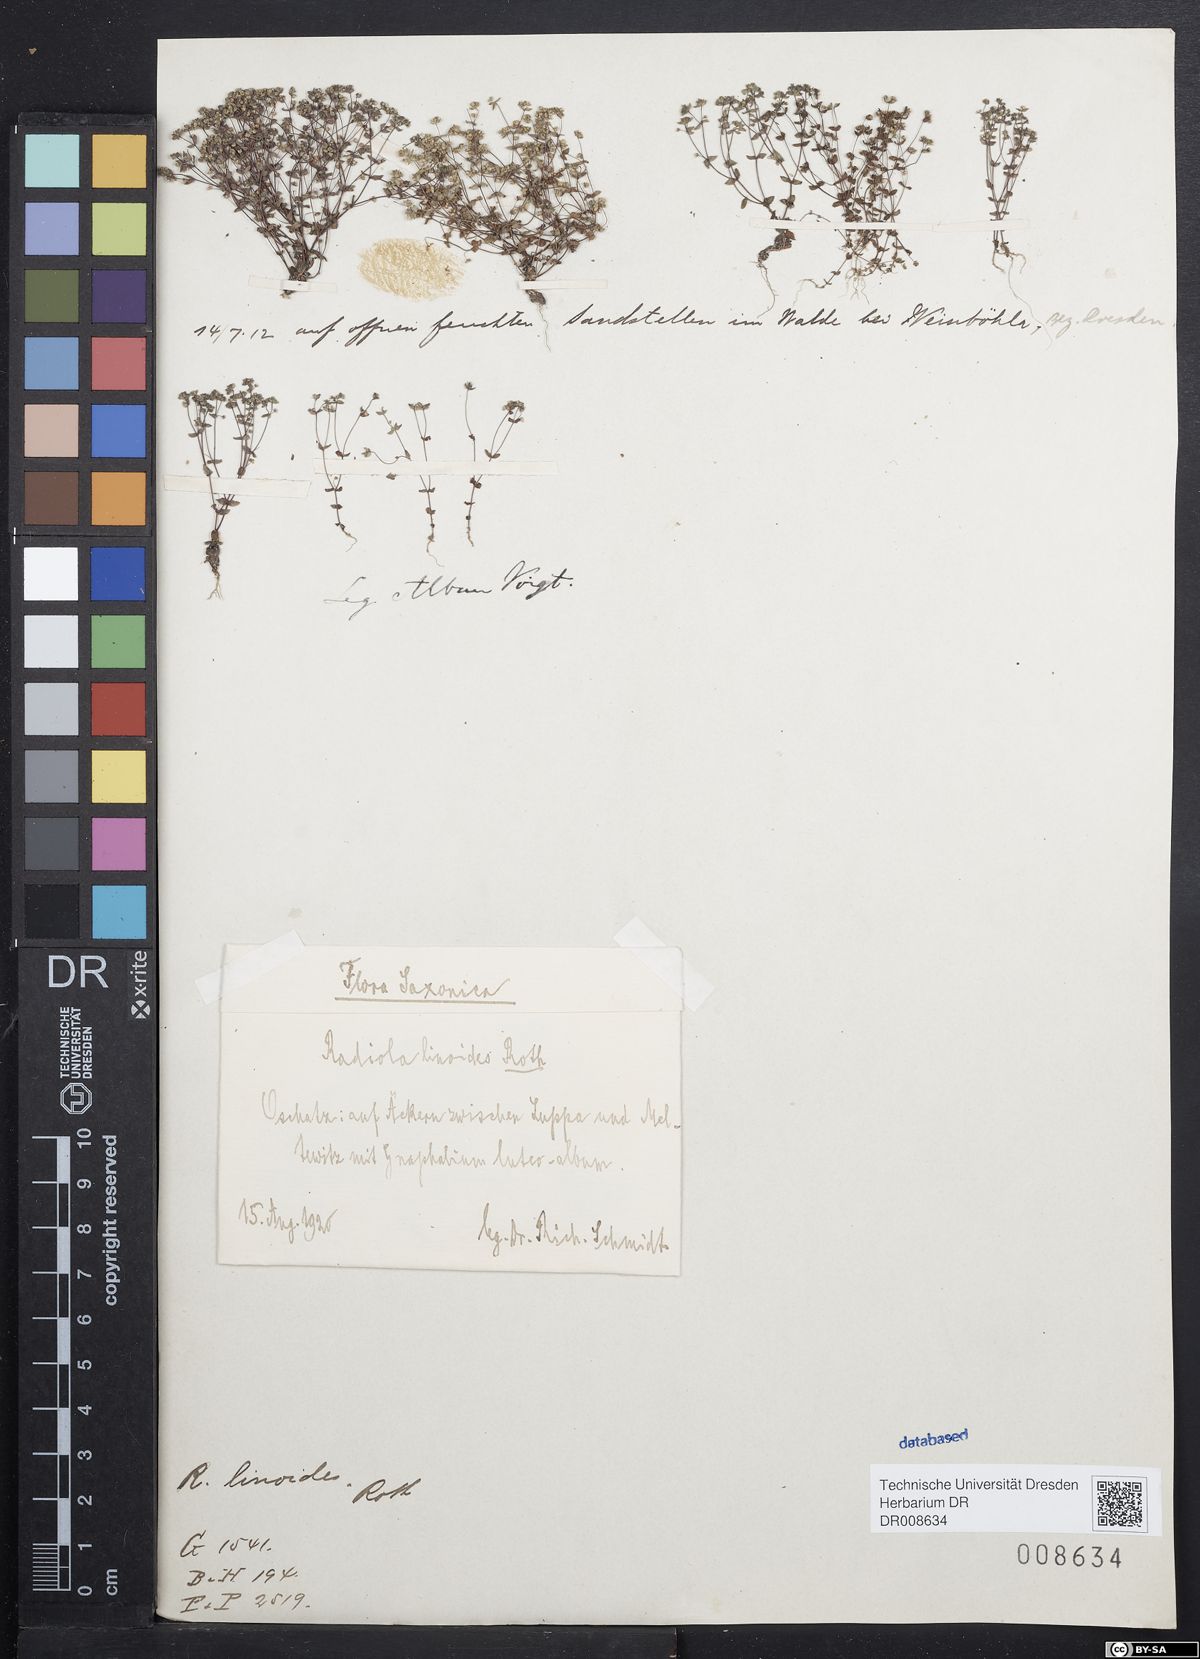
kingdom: Plantae
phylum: Tracheophyta
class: Magnoliopsida
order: Malpighiales
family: Linaceae
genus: Radiola
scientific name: Radiola linoides
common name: Allseed
